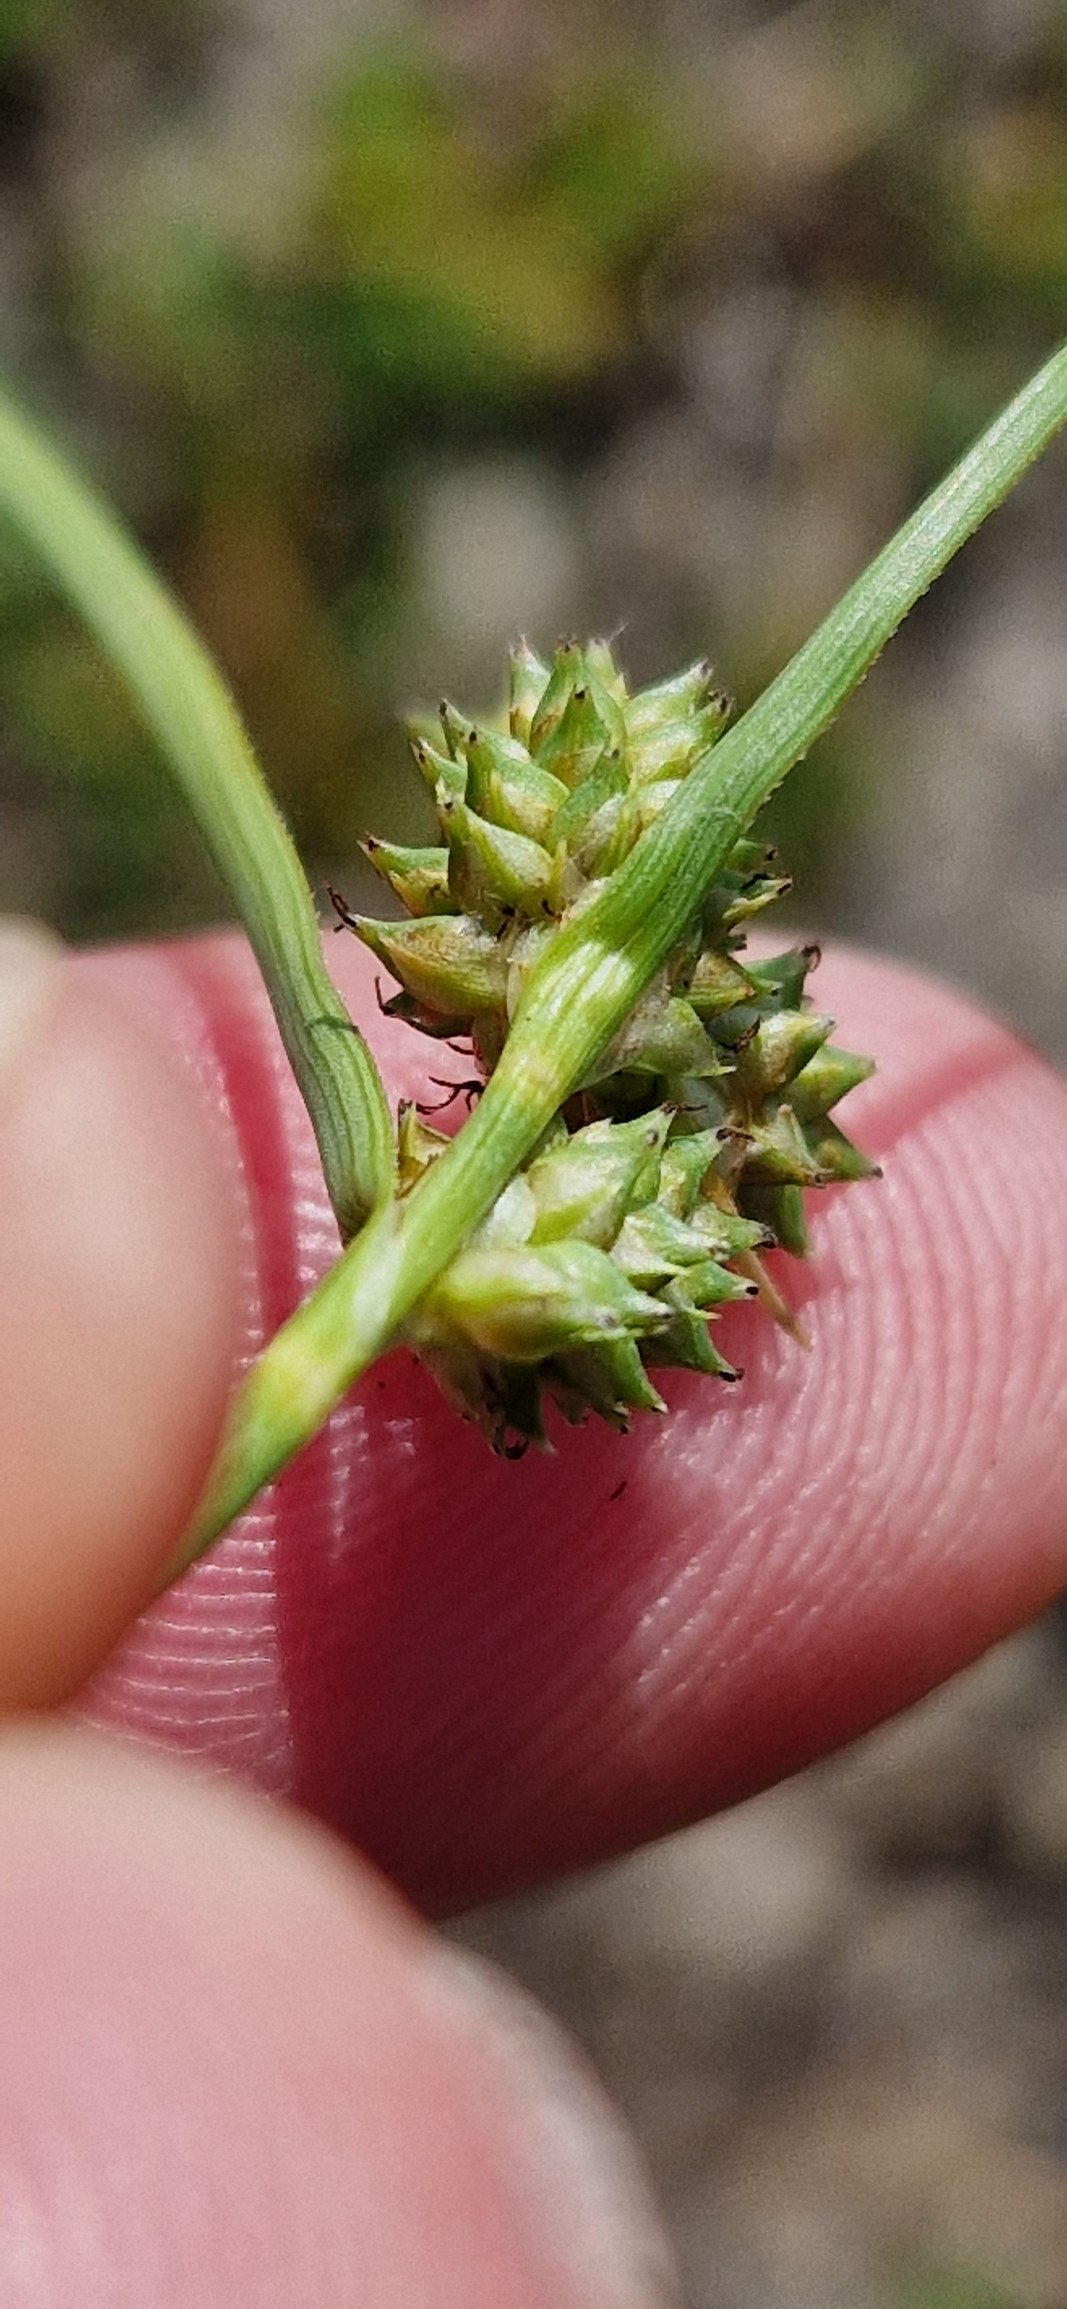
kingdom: Plantae
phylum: Tracheophyta
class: Liliopsida
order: Poales
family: Cyperaceae
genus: Carex
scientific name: Carex extensa
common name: Udspilet star
